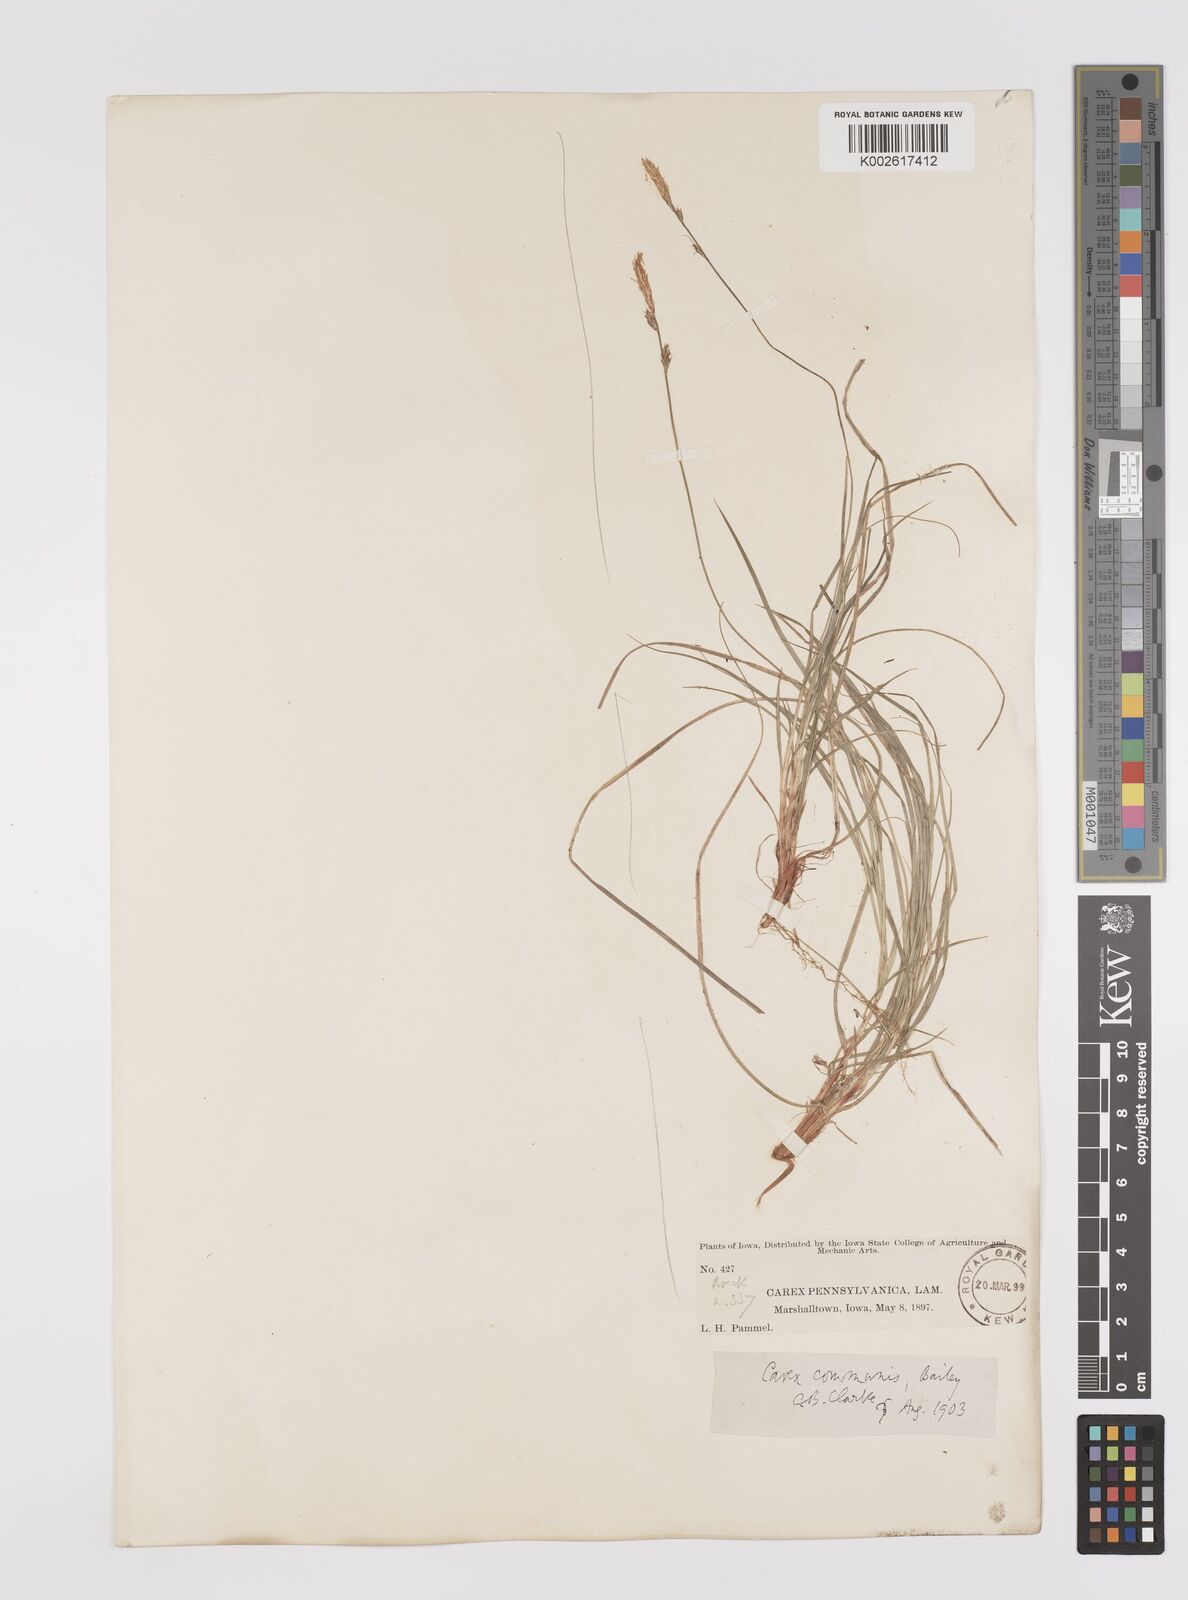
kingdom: Plantae
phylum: Tracheophyta
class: Liliopsida
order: Poales
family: Cyperaceae
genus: Carex
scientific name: Carex communis
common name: Colonial oak sedge
